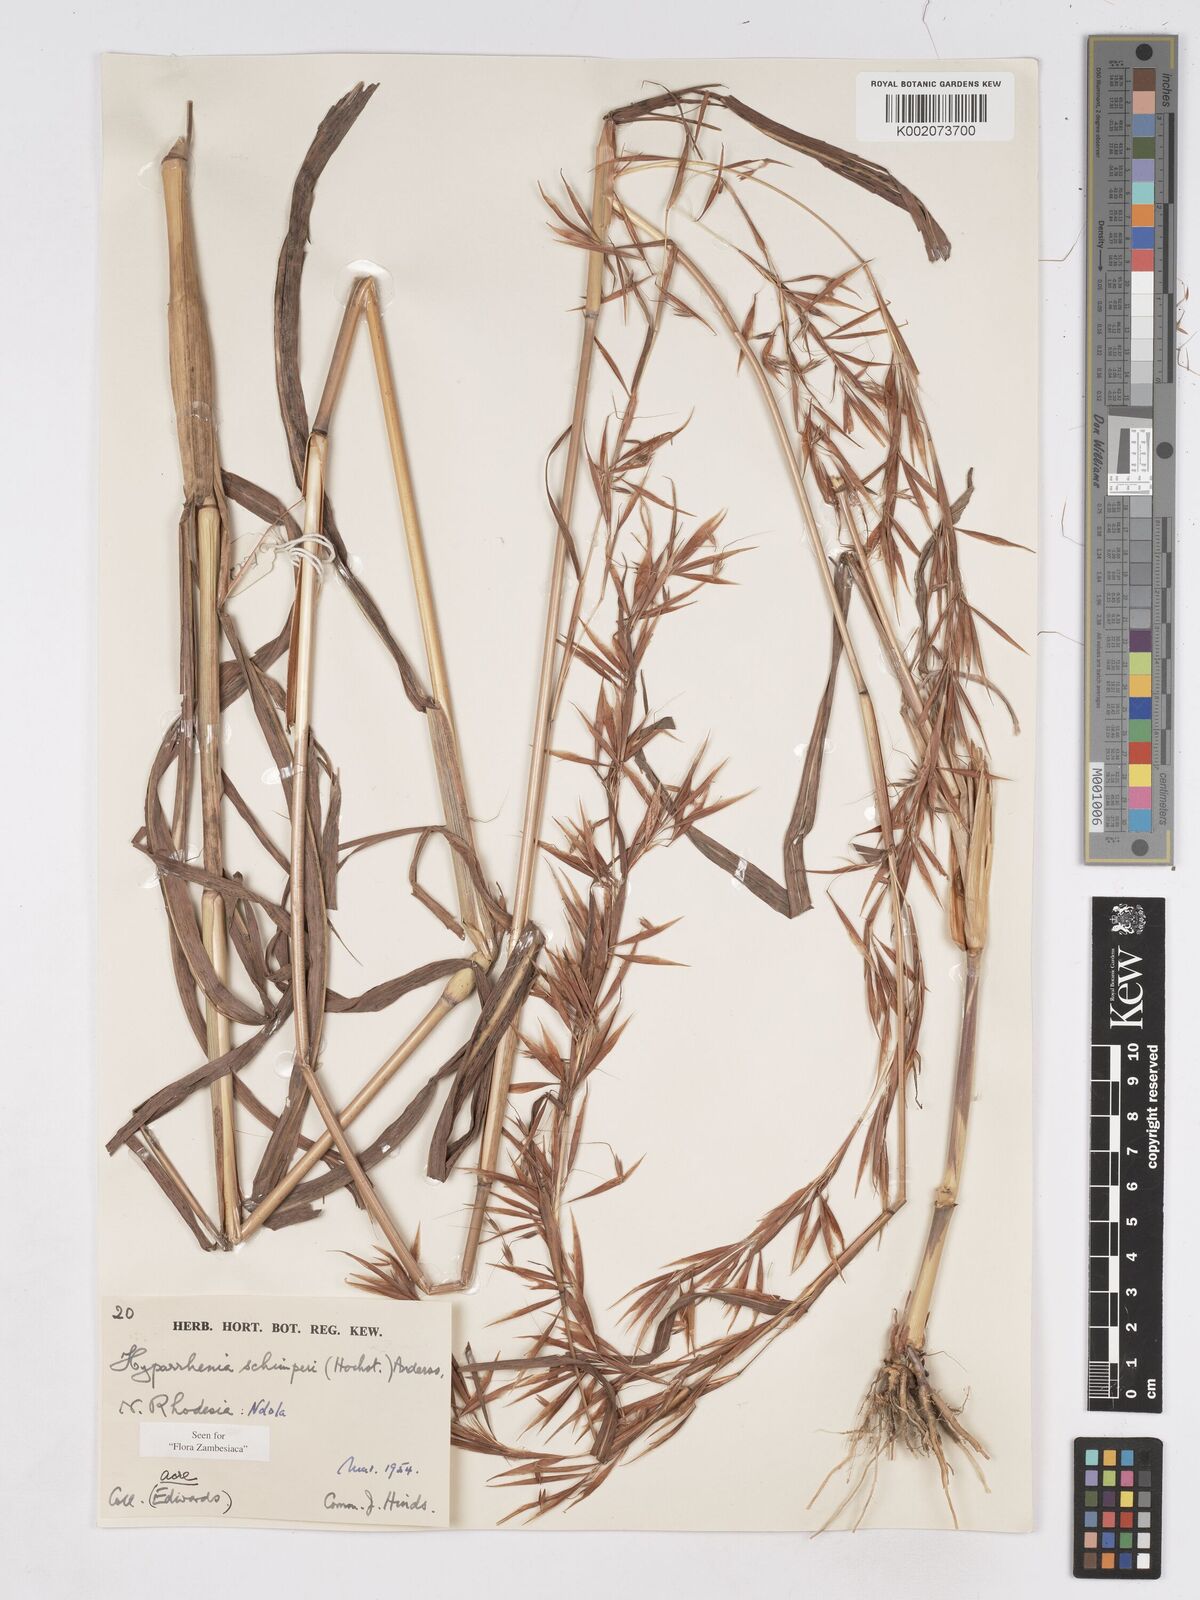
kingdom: Plantae
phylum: Tracheophyta
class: Liliopsida
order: Poales
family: Poaceae
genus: Hyparrhenia
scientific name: Hyparrhenia schimperi
